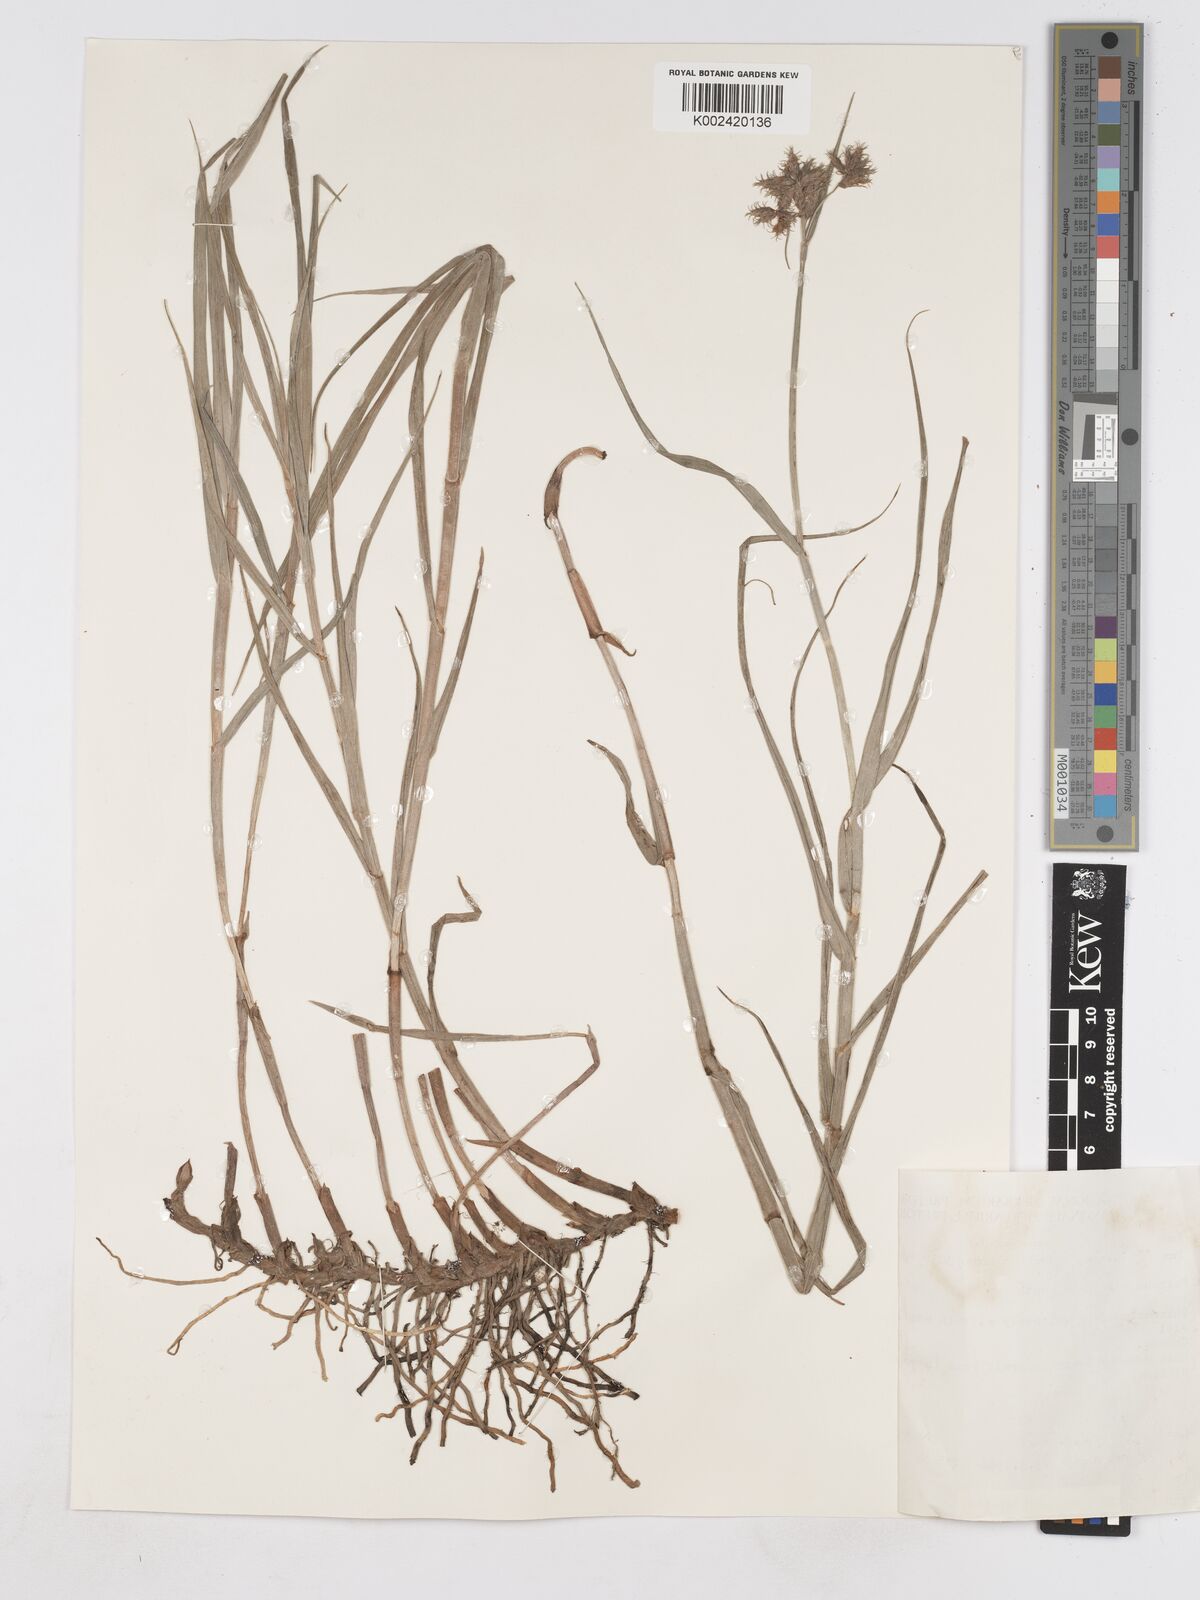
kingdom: Plantae
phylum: Tracheophyta
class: Liliopsida
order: Poales
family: Cyperaceae
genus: Fuirena
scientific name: Fuirena pubescens
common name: Hairy sedge
